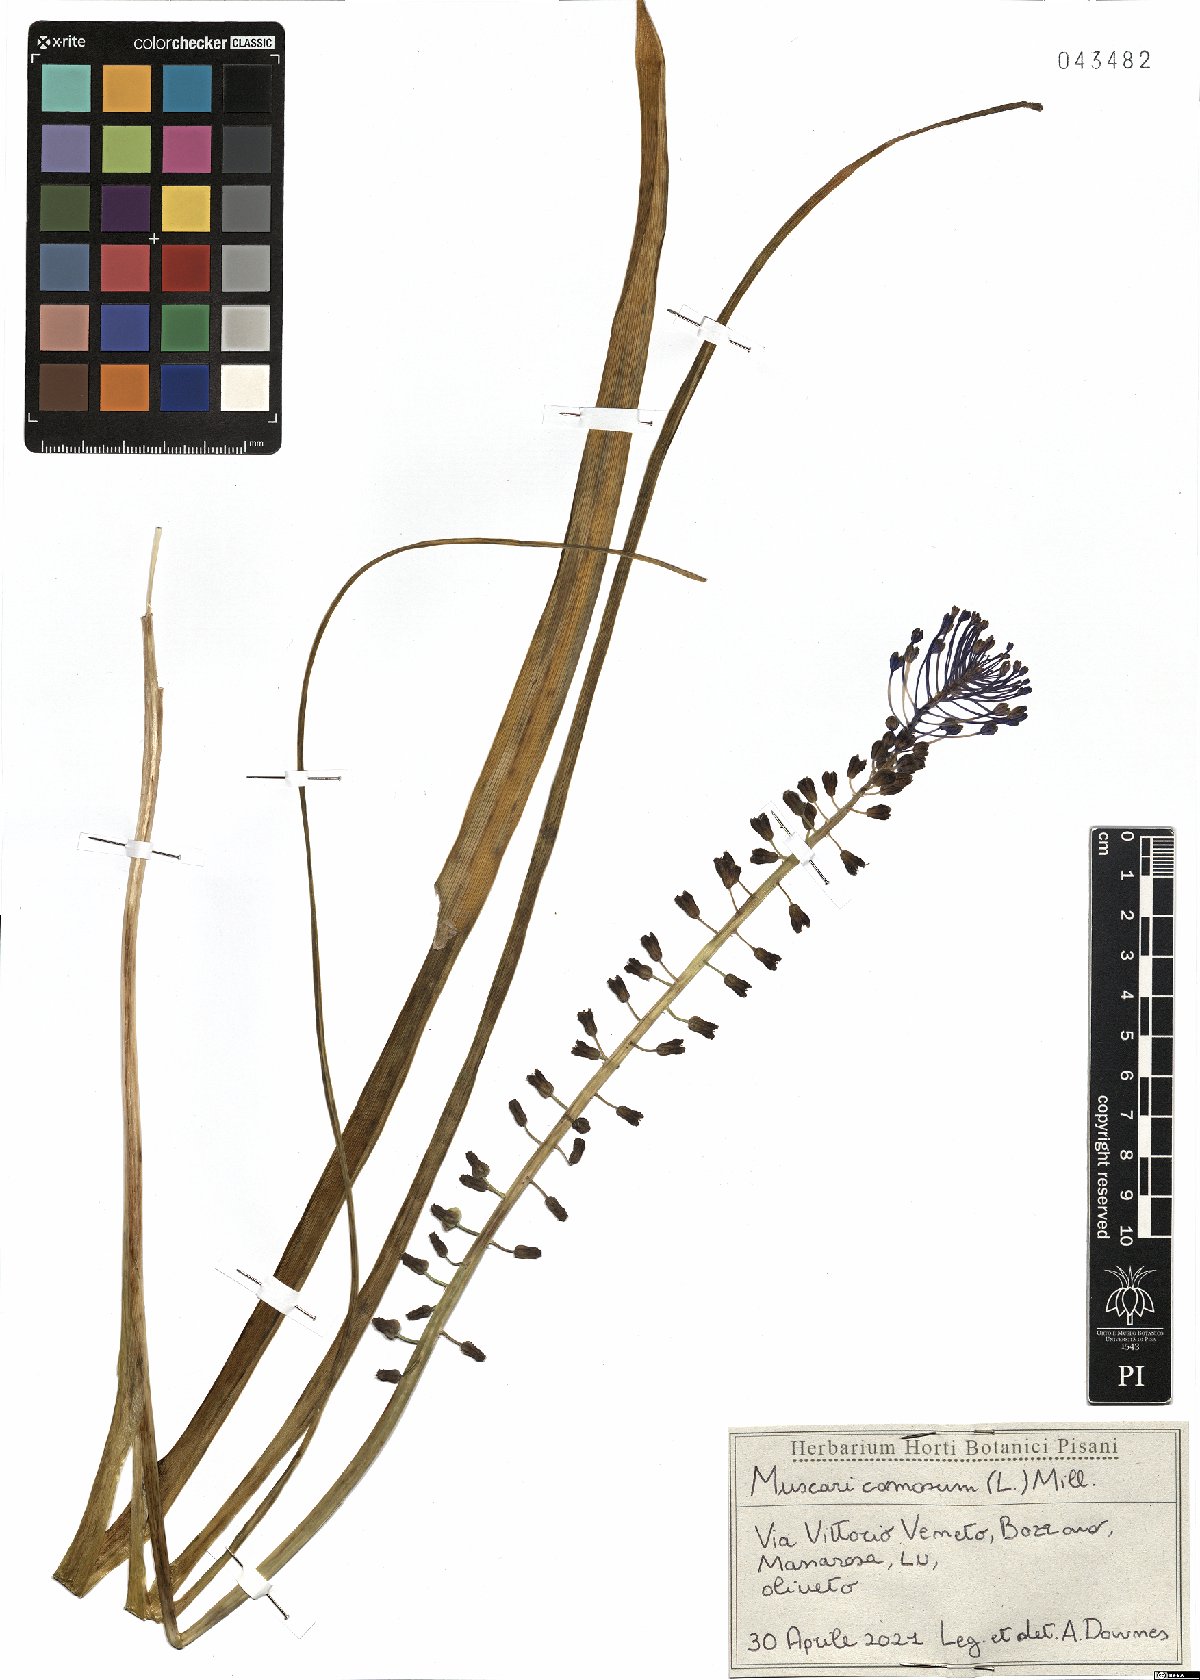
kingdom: Plantae
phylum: Tracheophyta
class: Liliopsida
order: Asparagales
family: Asparagaceae
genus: Muscari
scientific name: Muscari comosum
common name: Tassel hyacinth
